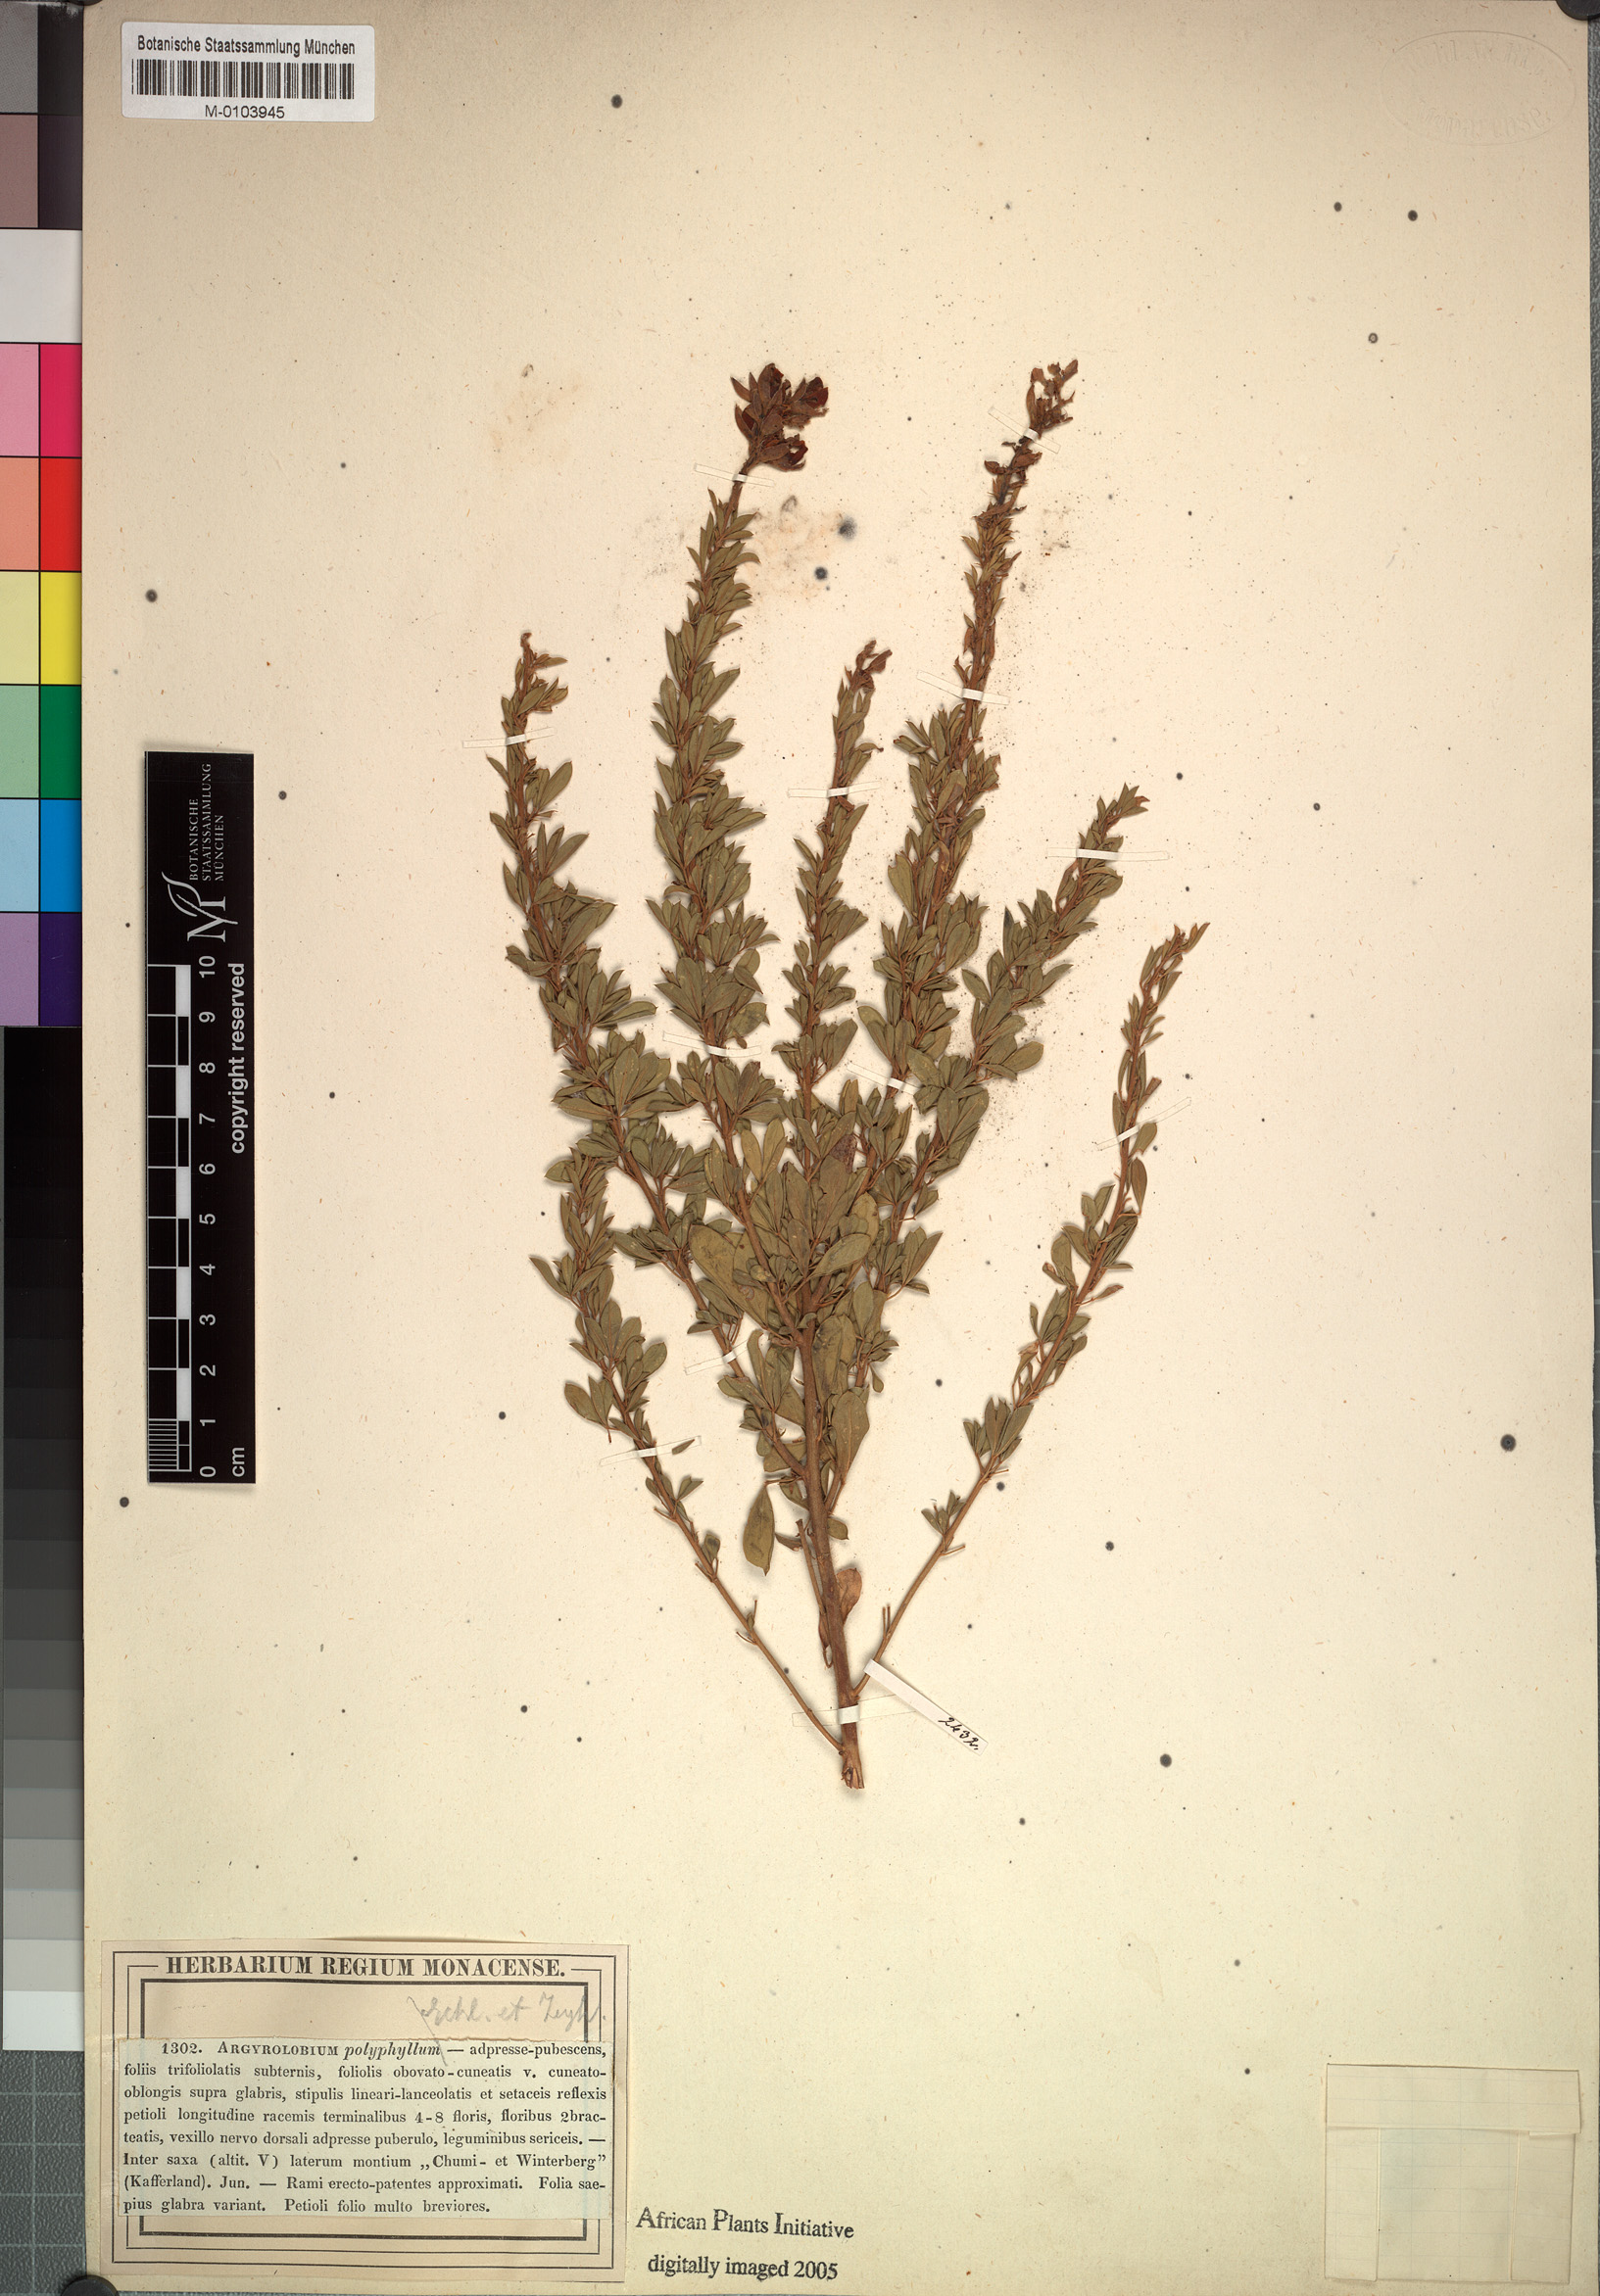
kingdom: Plantae
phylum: Tracheophyta
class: Magnoliopsida
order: Fabales
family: Fabaceae
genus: Argyrolobium
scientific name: Argyrolobium polyphyllum
